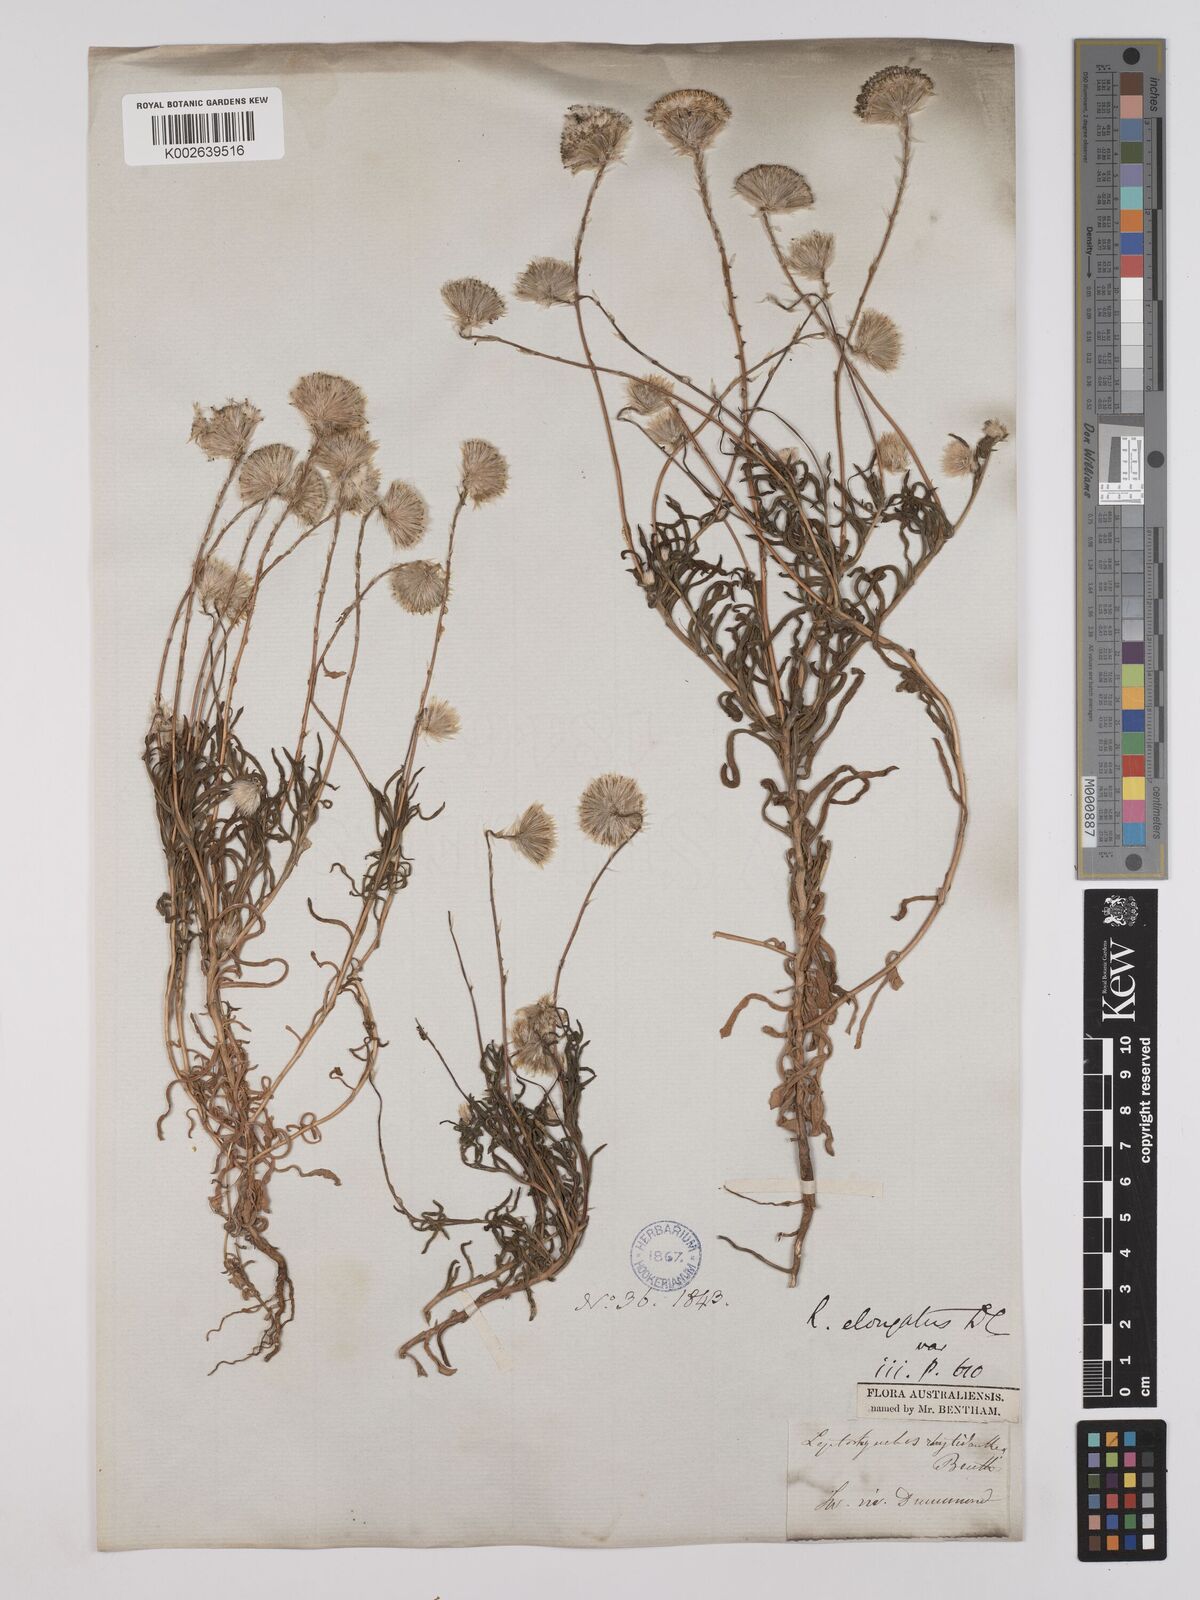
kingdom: Plantae
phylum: Tracheophyta
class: Magnoliopsida
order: Asterales
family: Asteraceae
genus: Leptorhynchos
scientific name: Leptorhynchos elongatus
